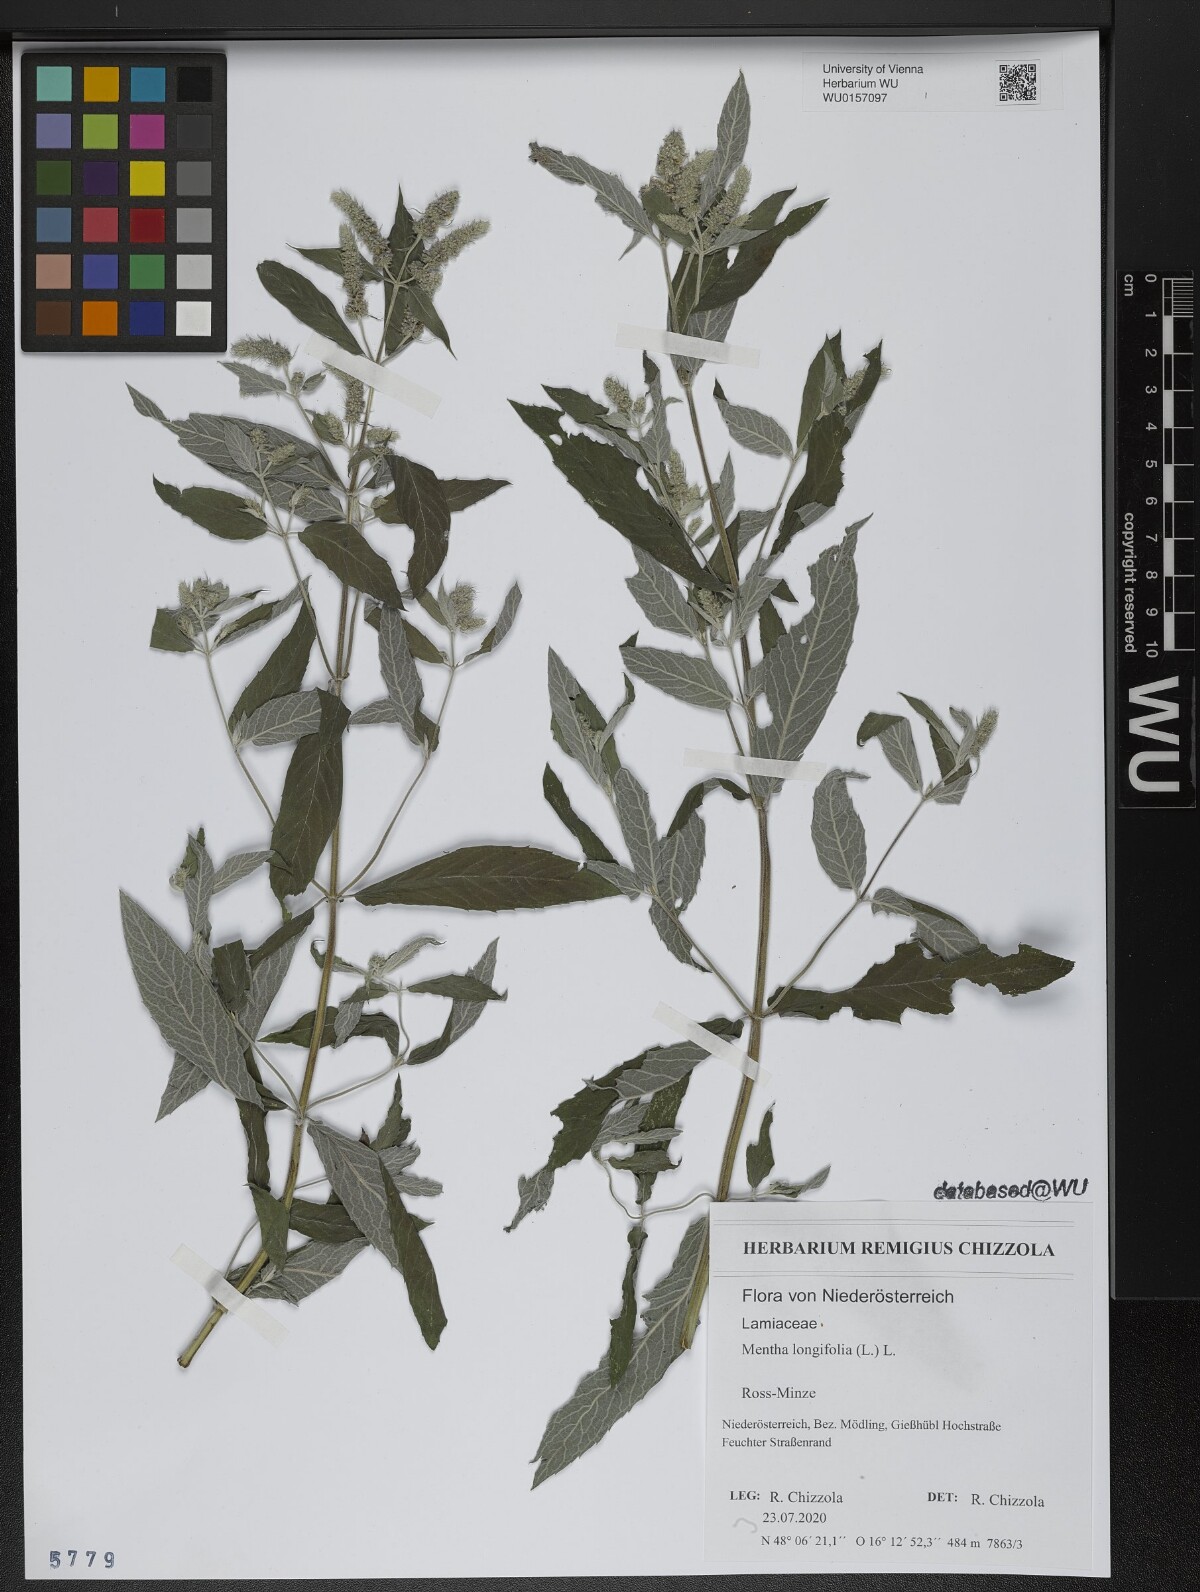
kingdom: Plantae
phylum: Tracheophyta
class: Magnoliopsida
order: Lamiales
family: Lamiaceae
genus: Mentha
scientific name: Mentha longifolia
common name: Horse mint
